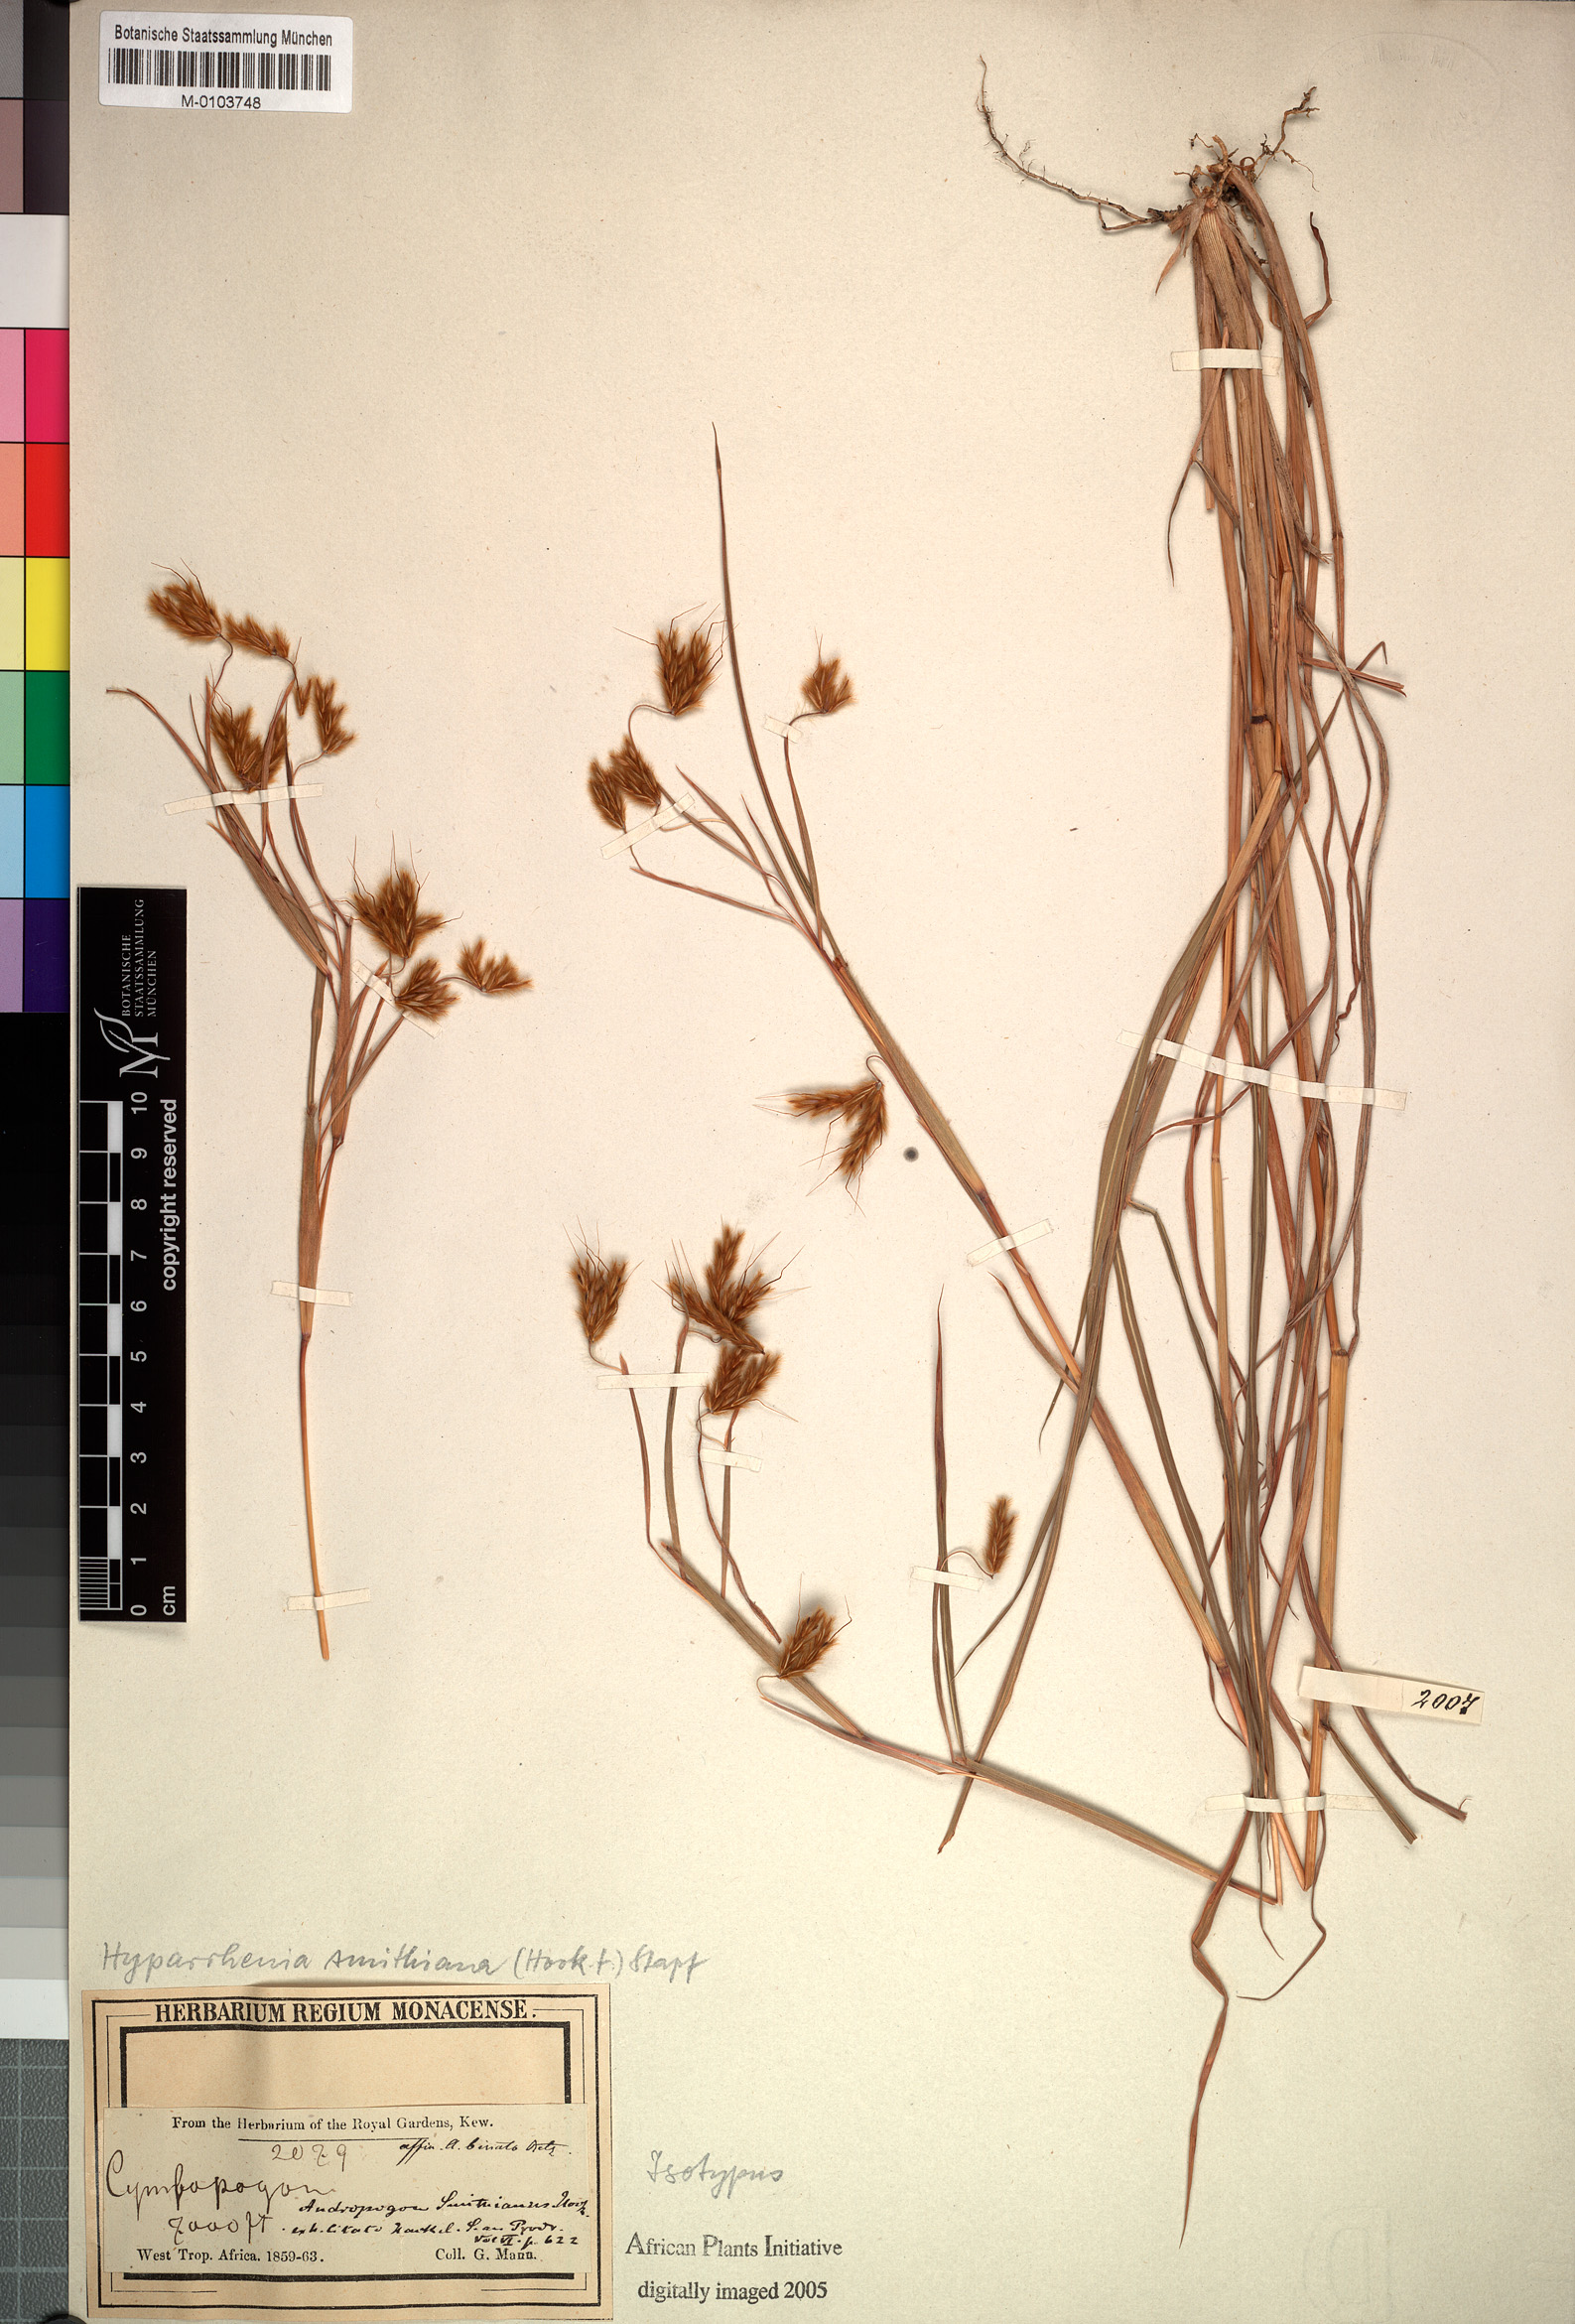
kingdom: Plantae
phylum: Tracheophyta
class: Liliopsida
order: Poales
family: Poaceae
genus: Hyparrhenia
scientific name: Hyparrhenia smithiana
